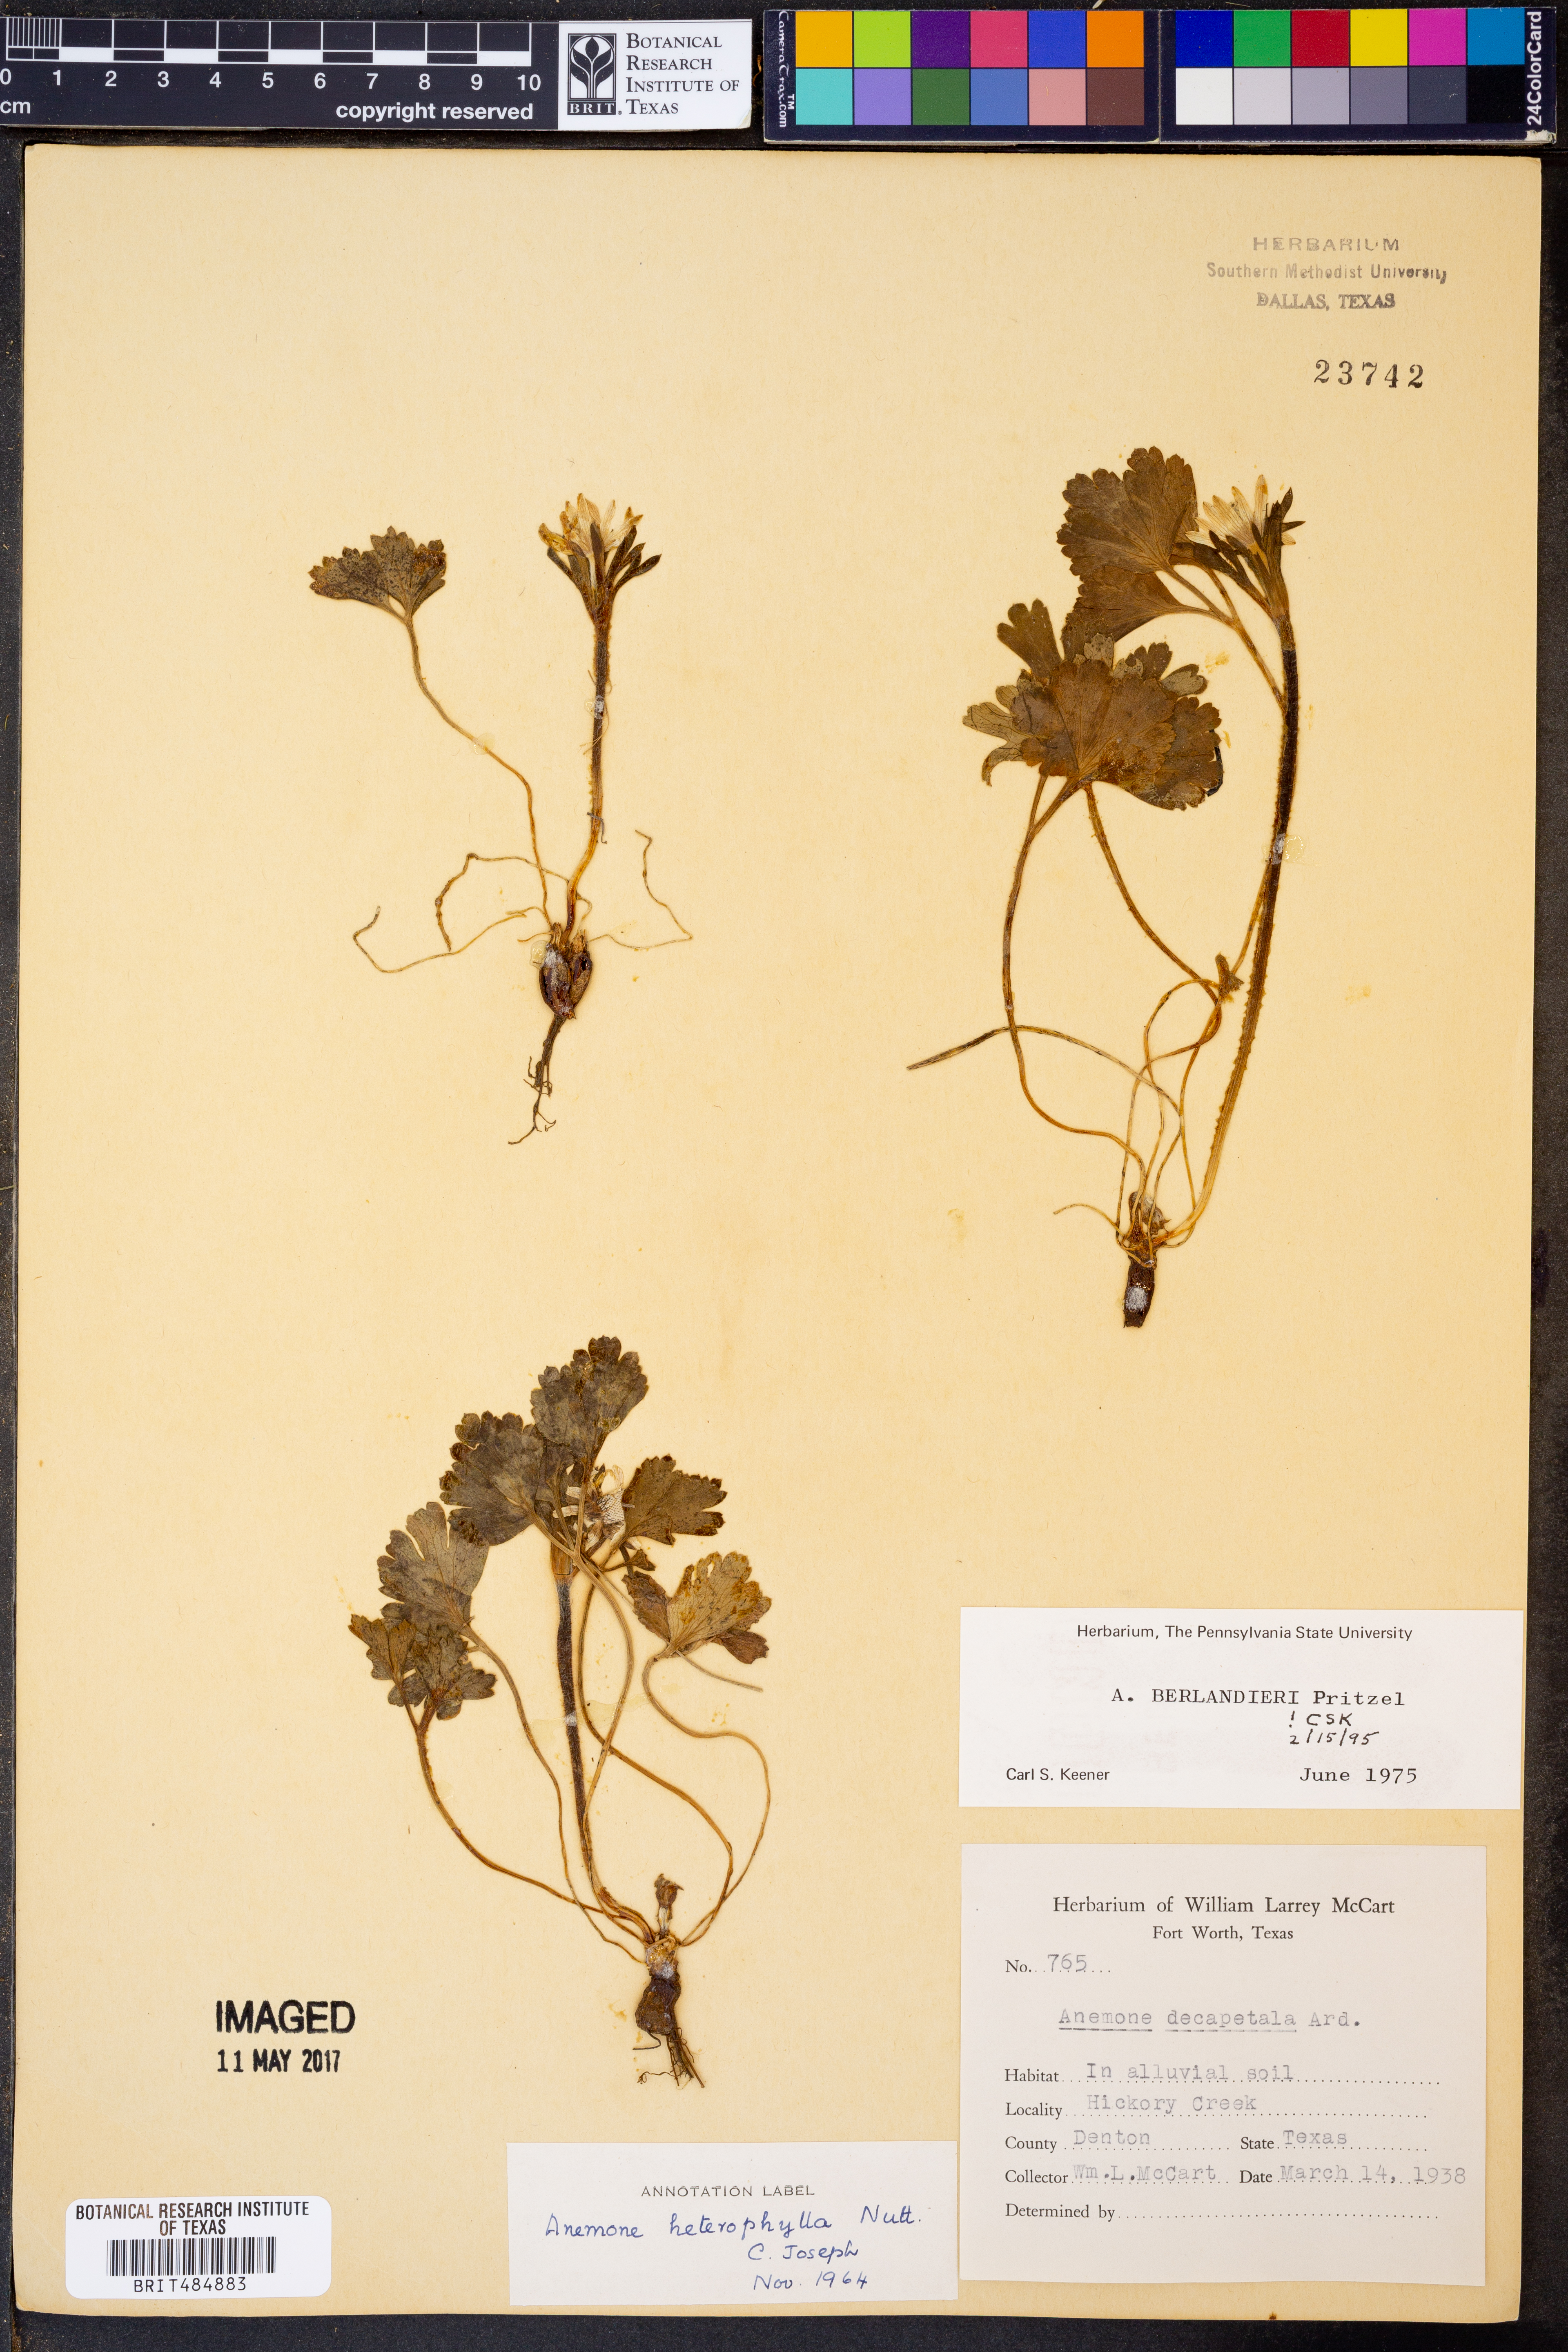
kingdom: Plantae
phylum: Tracheophyta
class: Magnoliopsida
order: Ranunculales
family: Ranunculaceae
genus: Anemone
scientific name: Anemone berlandieri
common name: Ten-petal anemone
